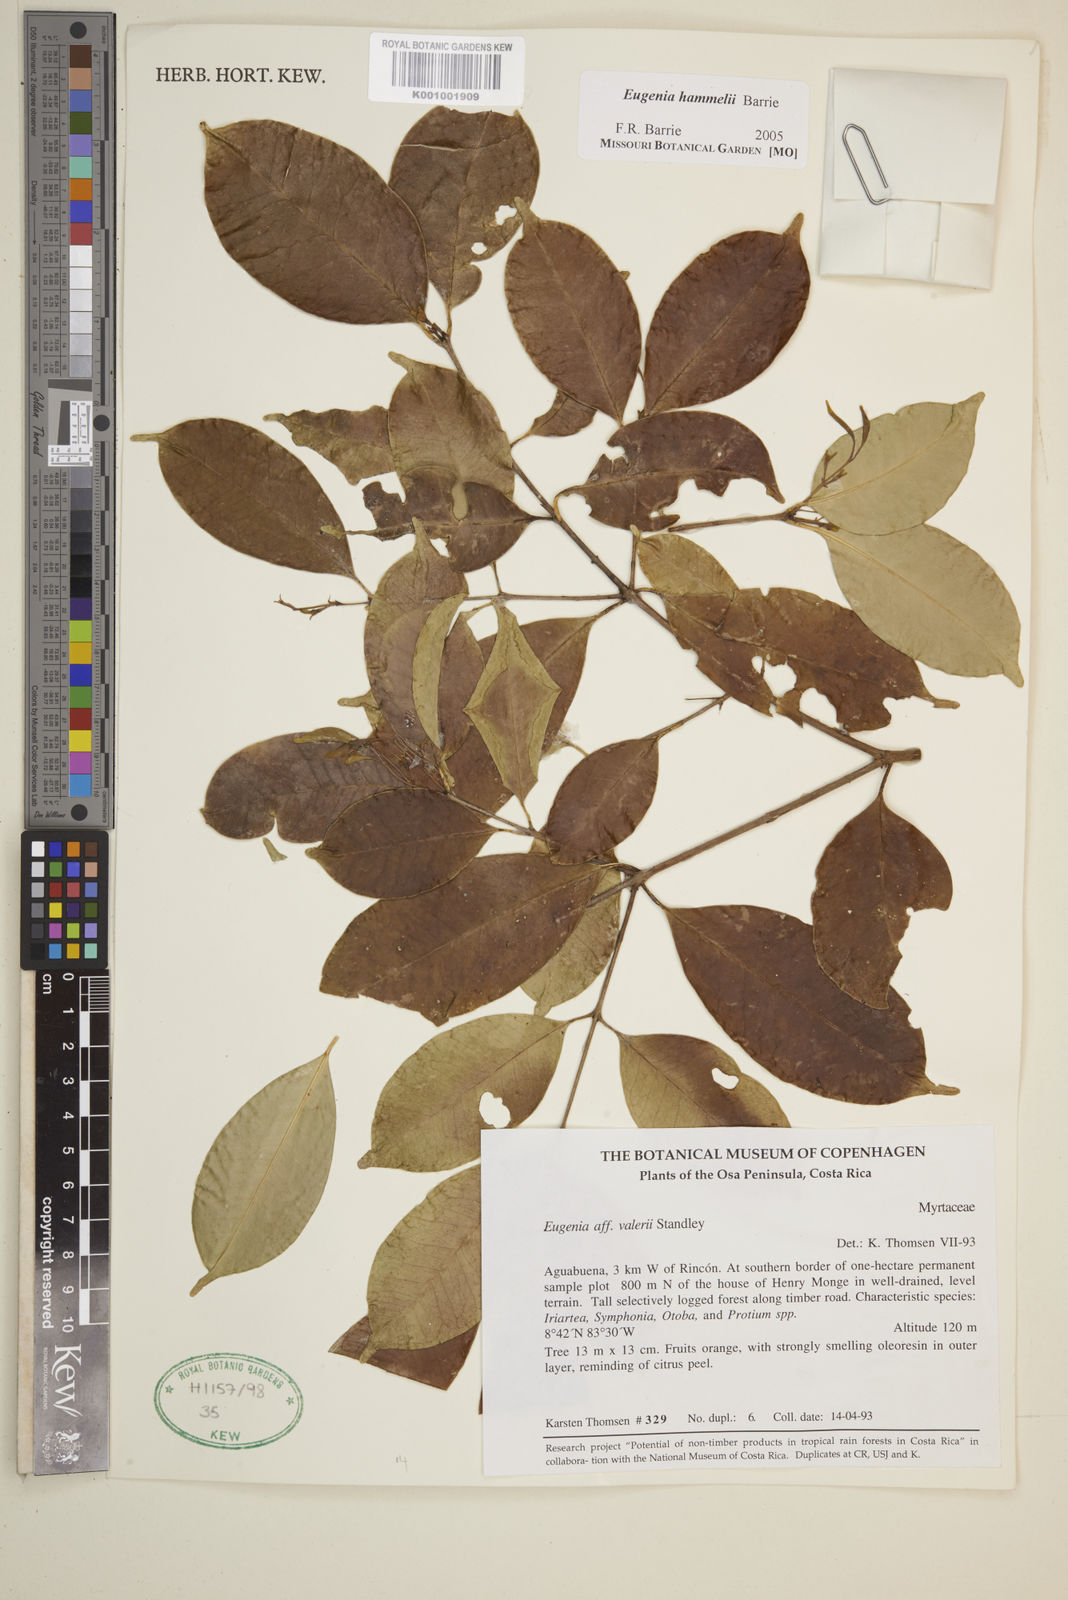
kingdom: Plantae
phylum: Tracheophyta
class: Magnoliopsida
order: Myrtales
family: Myrtaceae
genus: Eugenia
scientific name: Eugenia hammelii
